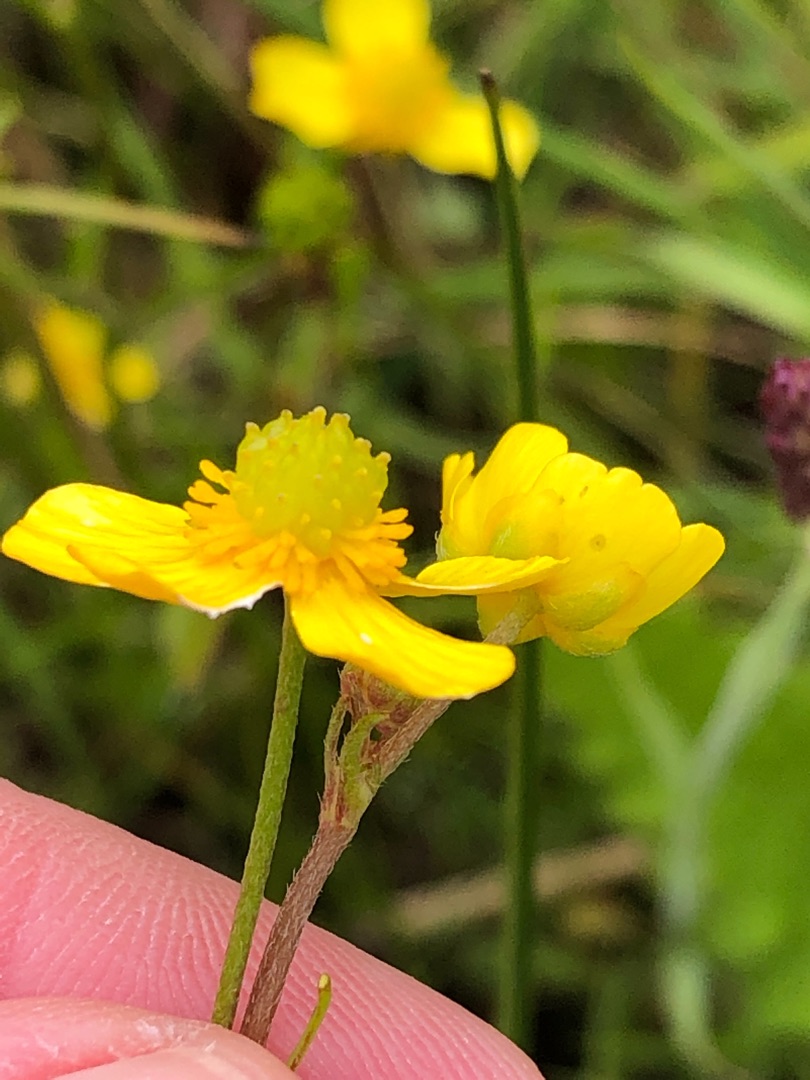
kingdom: Plantae
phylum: Tracheophyta
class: Magnoliopsida
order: Ranunculales
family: Ranunculaceae
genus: Ranunculus
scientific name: Ranunculus flammula
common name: Kær-ranunkel
